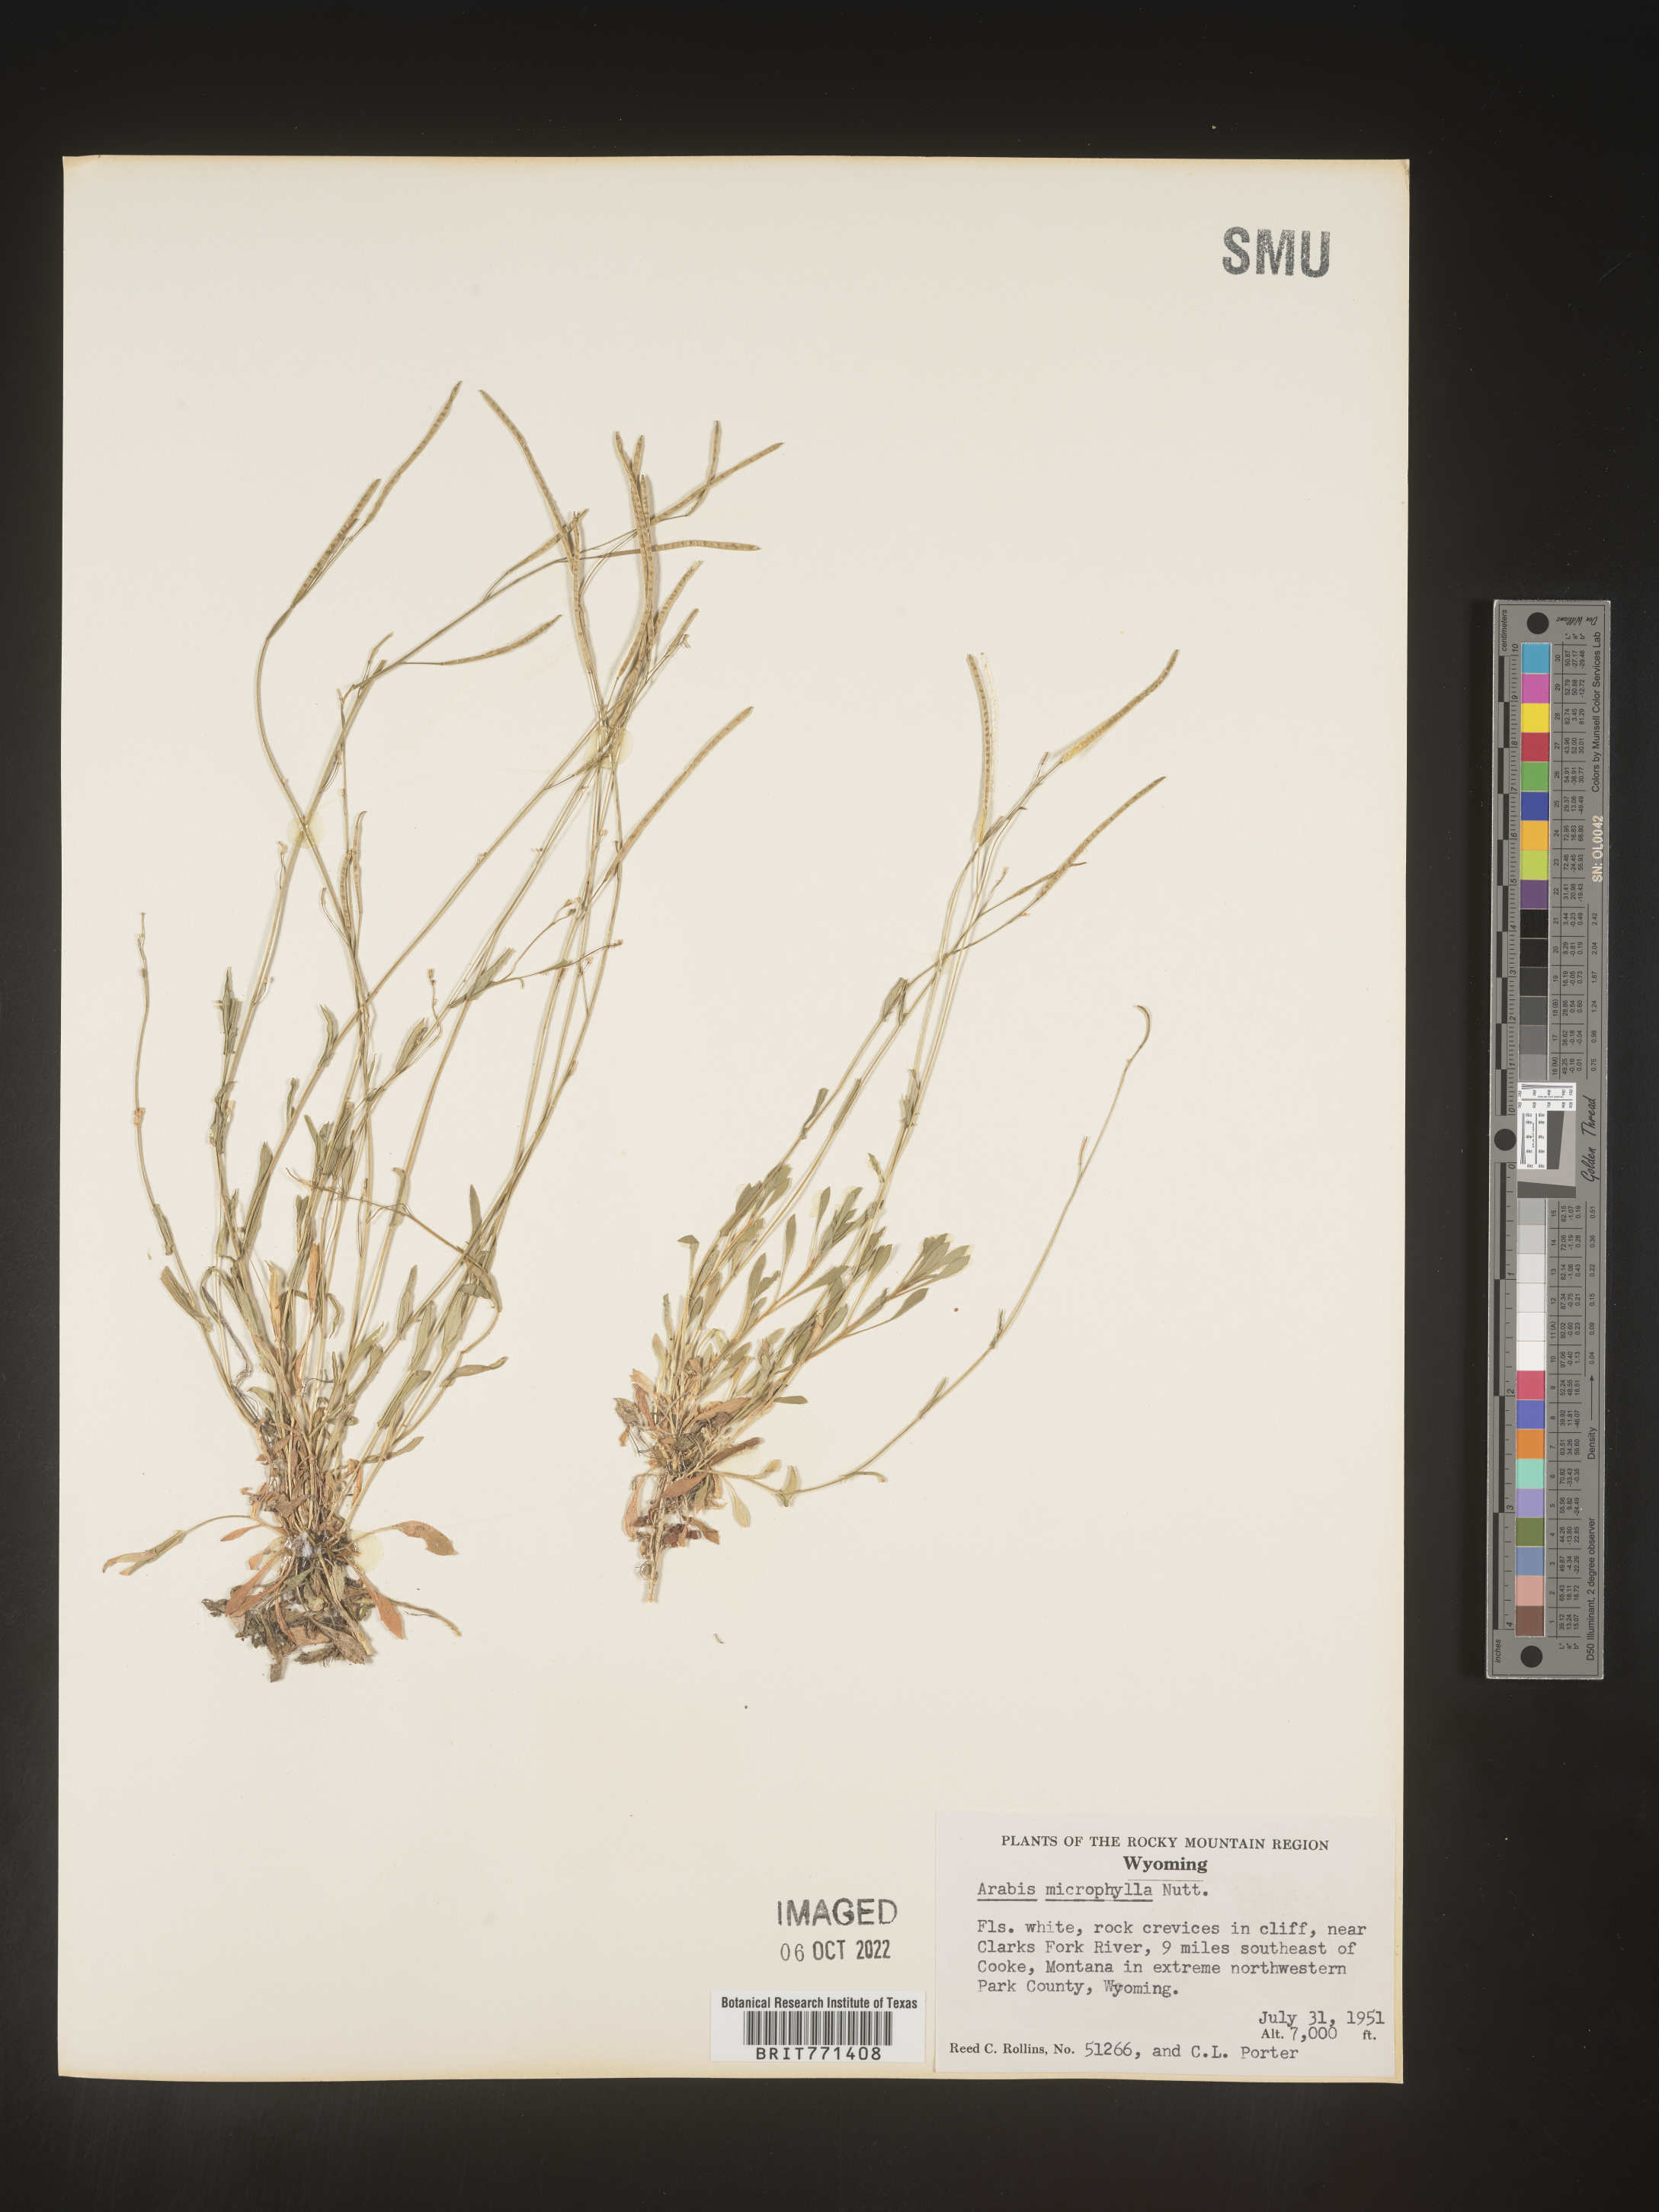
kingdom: Plantae
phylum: Tracheophyta
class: Magnoliopsida
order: Brassicales
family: Brassicaceae
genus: Arabis
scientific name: Arabis
